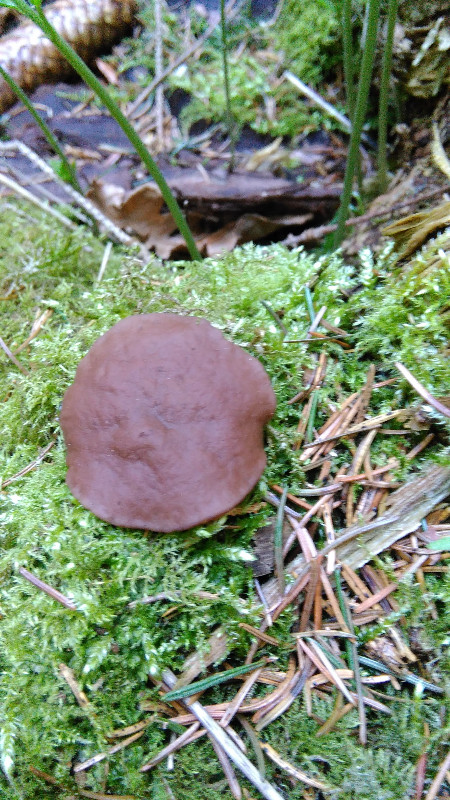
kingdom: Fungi
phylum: Ascomycota
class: Pezizomycetes
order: Pezizales
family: Discinaceae
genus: Discina
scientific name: Discina ancilis
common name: udbredt stenmorkel
